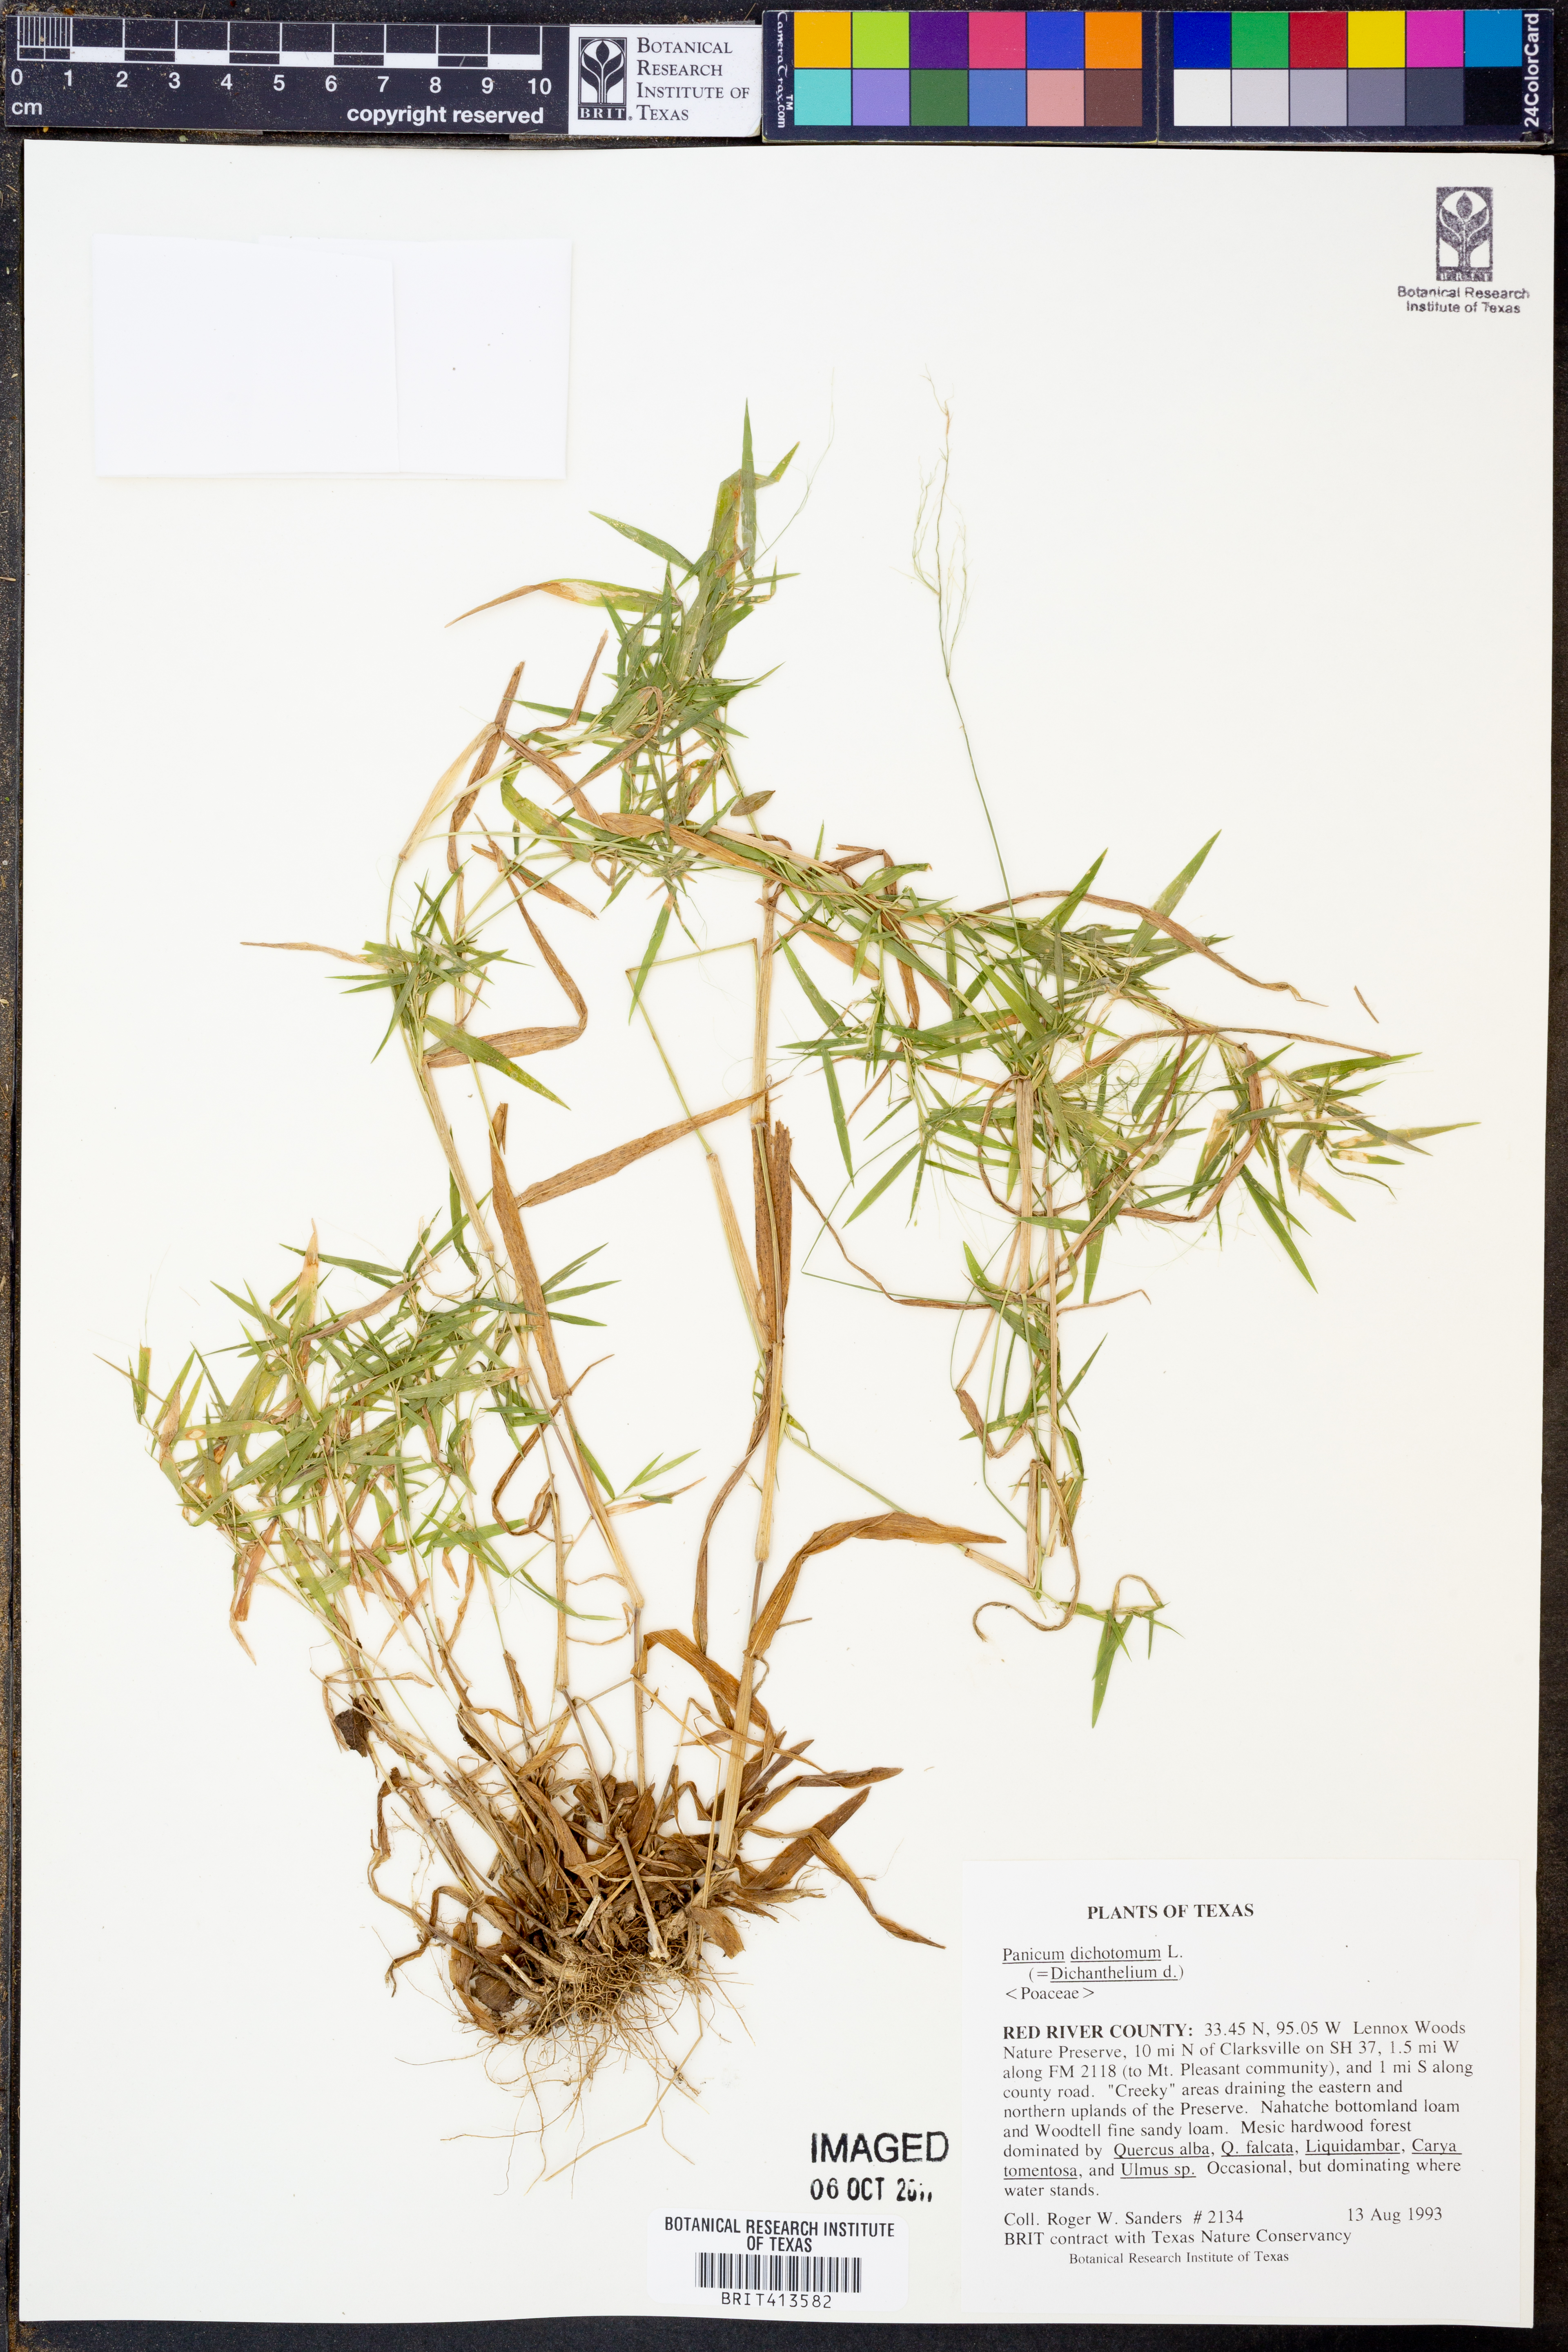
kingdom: Plantae
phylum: Tracheophyta
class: Liliopsida
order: Poales
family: Poaceae
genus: Dichanthelium
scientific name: Dichanthelium dichotomum
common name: Cypress panicgrass
